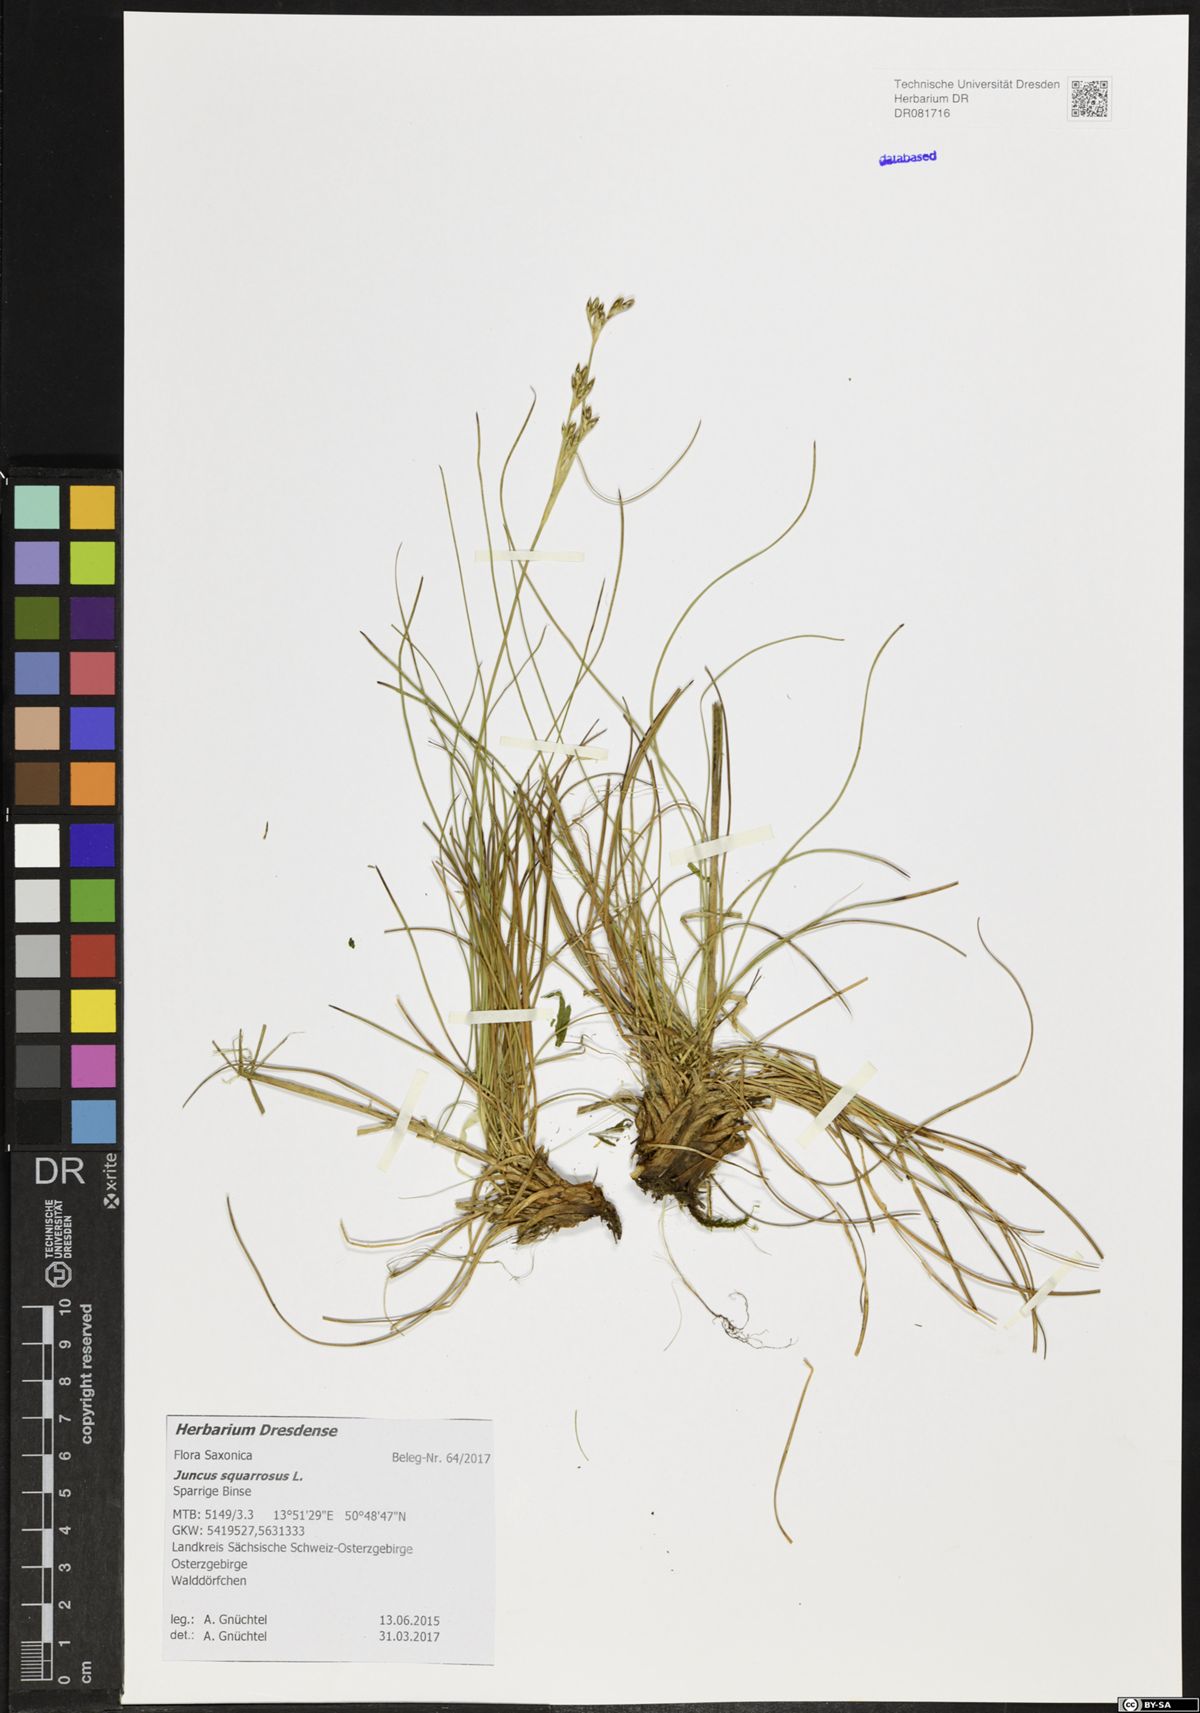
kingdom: Plantae
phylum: Tracheophyta
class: Liliopsida
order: Poales
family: Juncaceae
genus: Juncus
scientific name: Juncus squarrosus
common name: Heath rush
